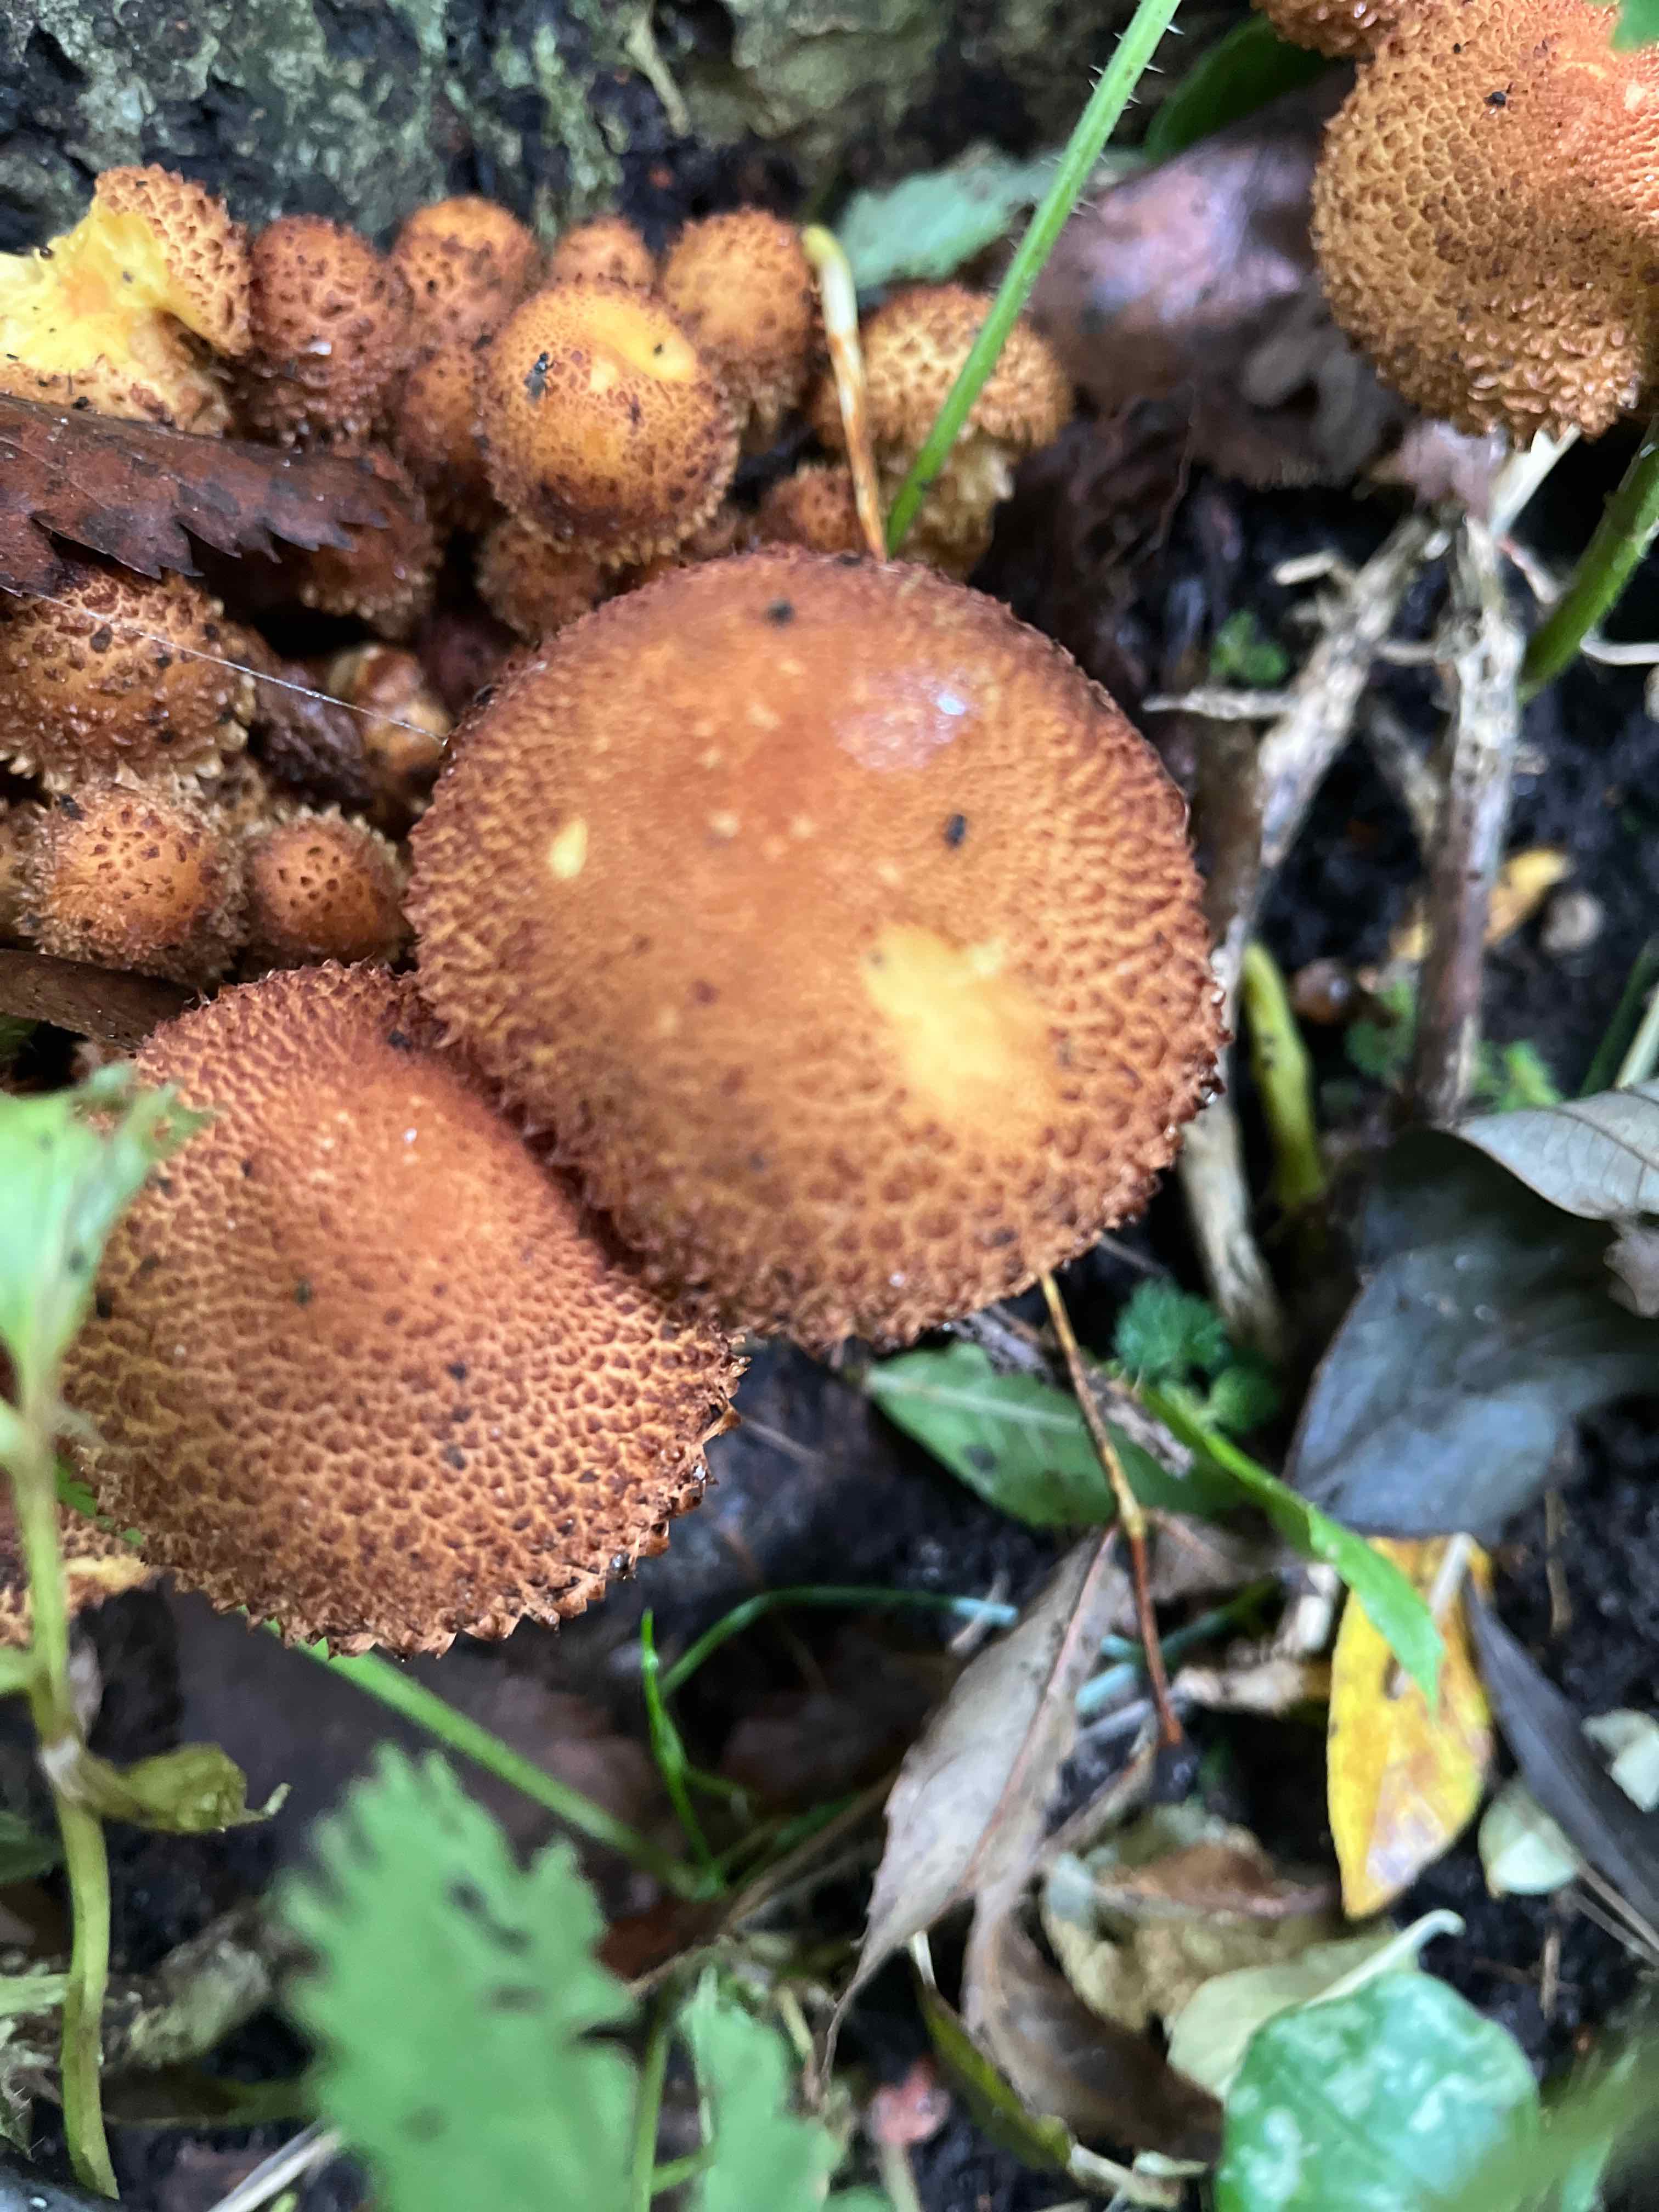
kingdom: Fungi
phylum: Basidiomycota
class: Agaricomycetes
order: Agaricales
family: Strophariaceae
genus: Pholiota
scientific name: Pholiota squarrosa
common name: krumskællet skælhat
